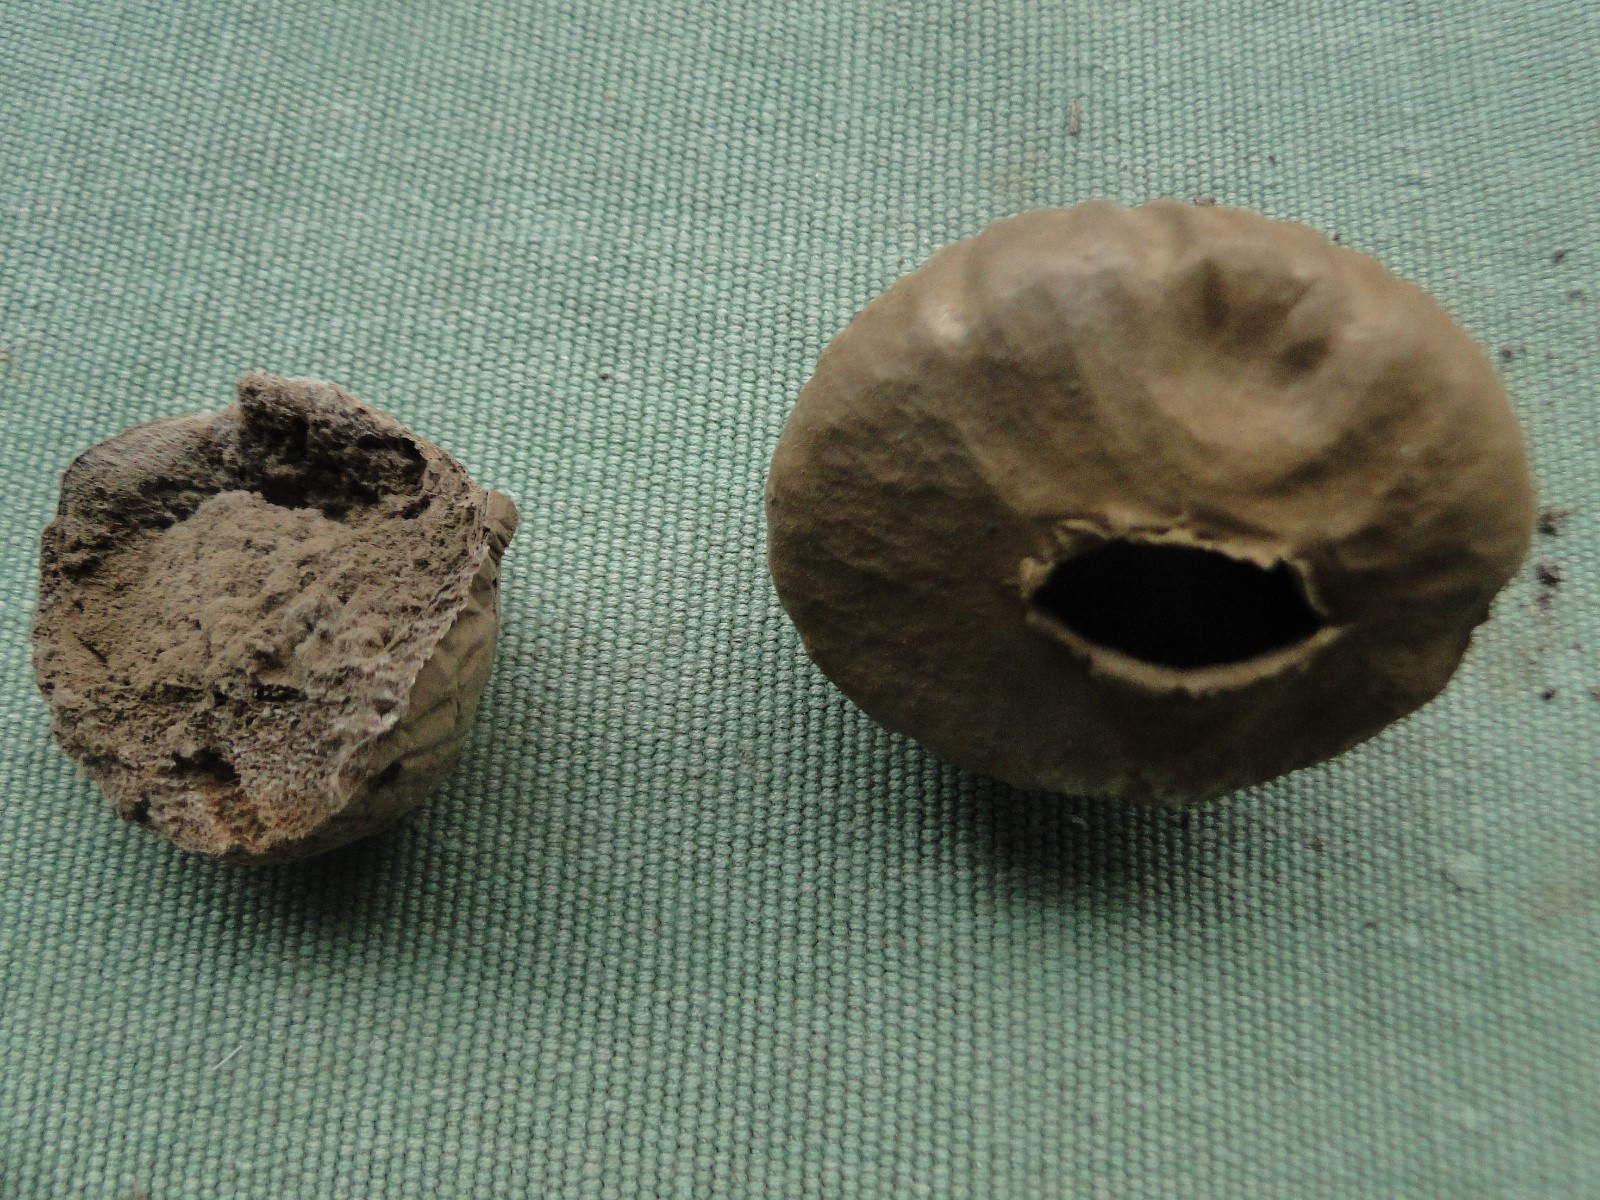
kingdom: Fungi
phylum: Basidiomycota
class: Agaricomycetes
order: Agaricales
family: Lycoperdaceae
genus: Lycoperdon
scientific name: Lycoperdon pratense
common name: flad støvbold
